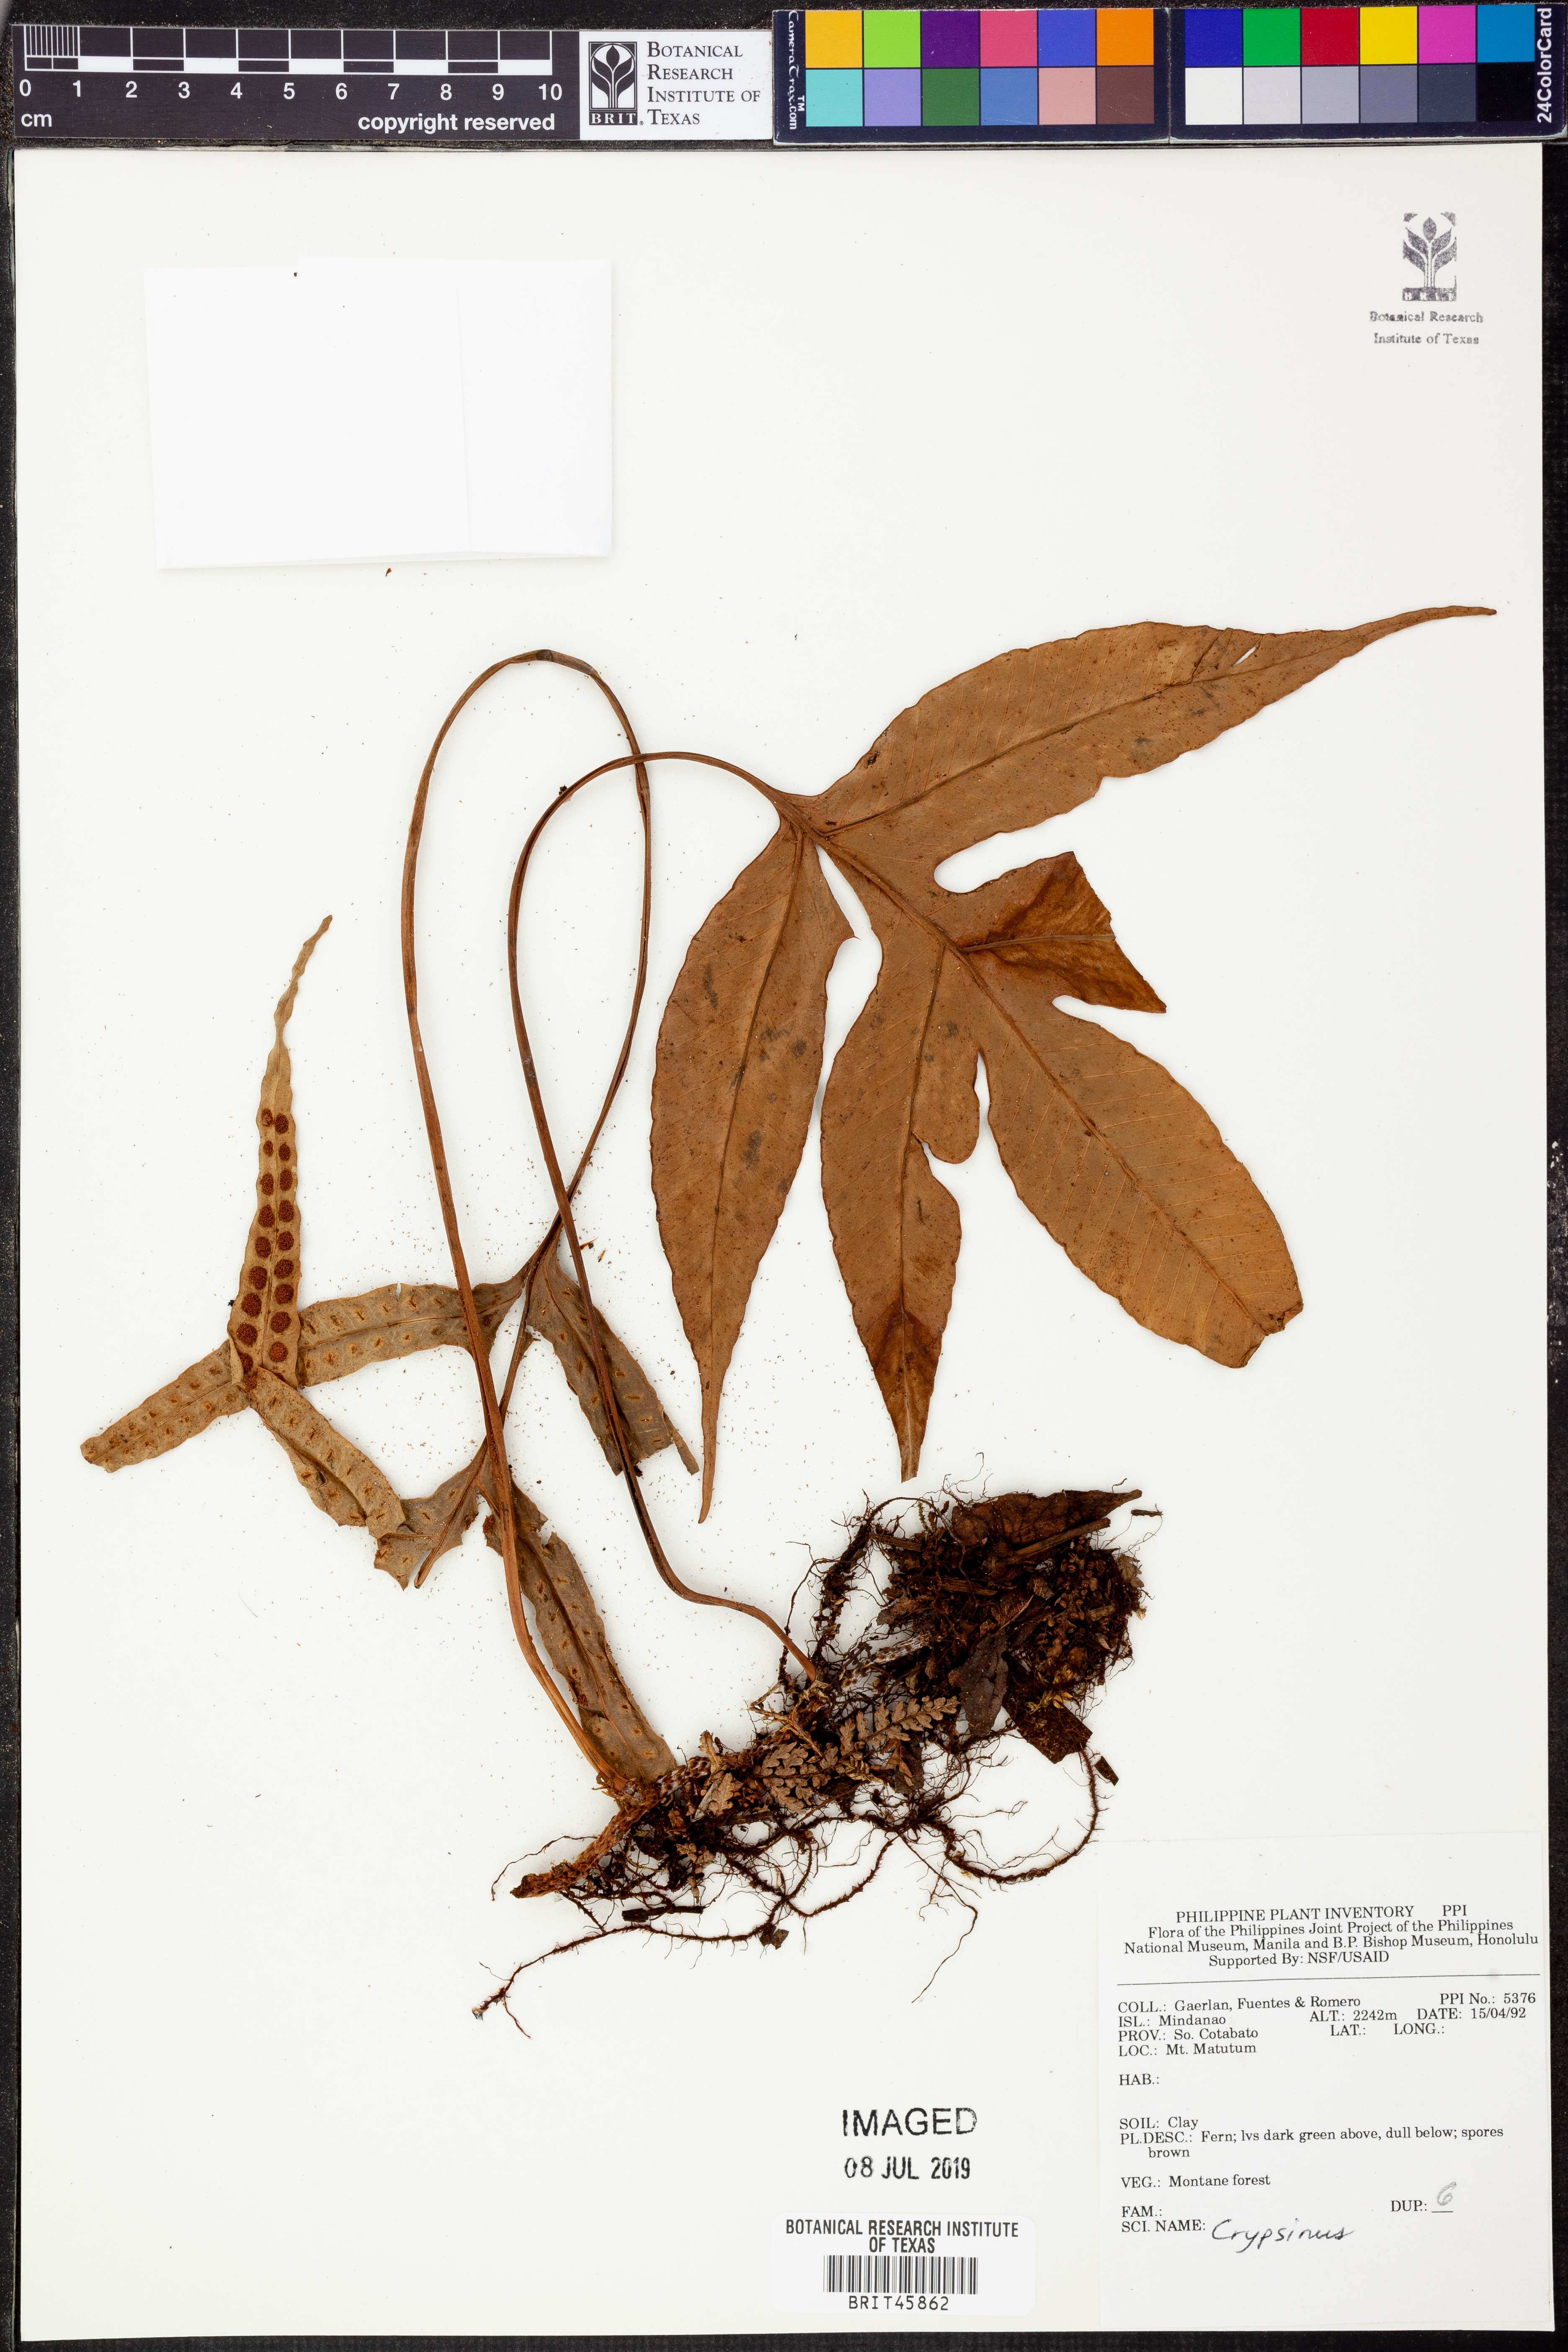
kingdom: Animalia
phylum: Arthropoda
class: Insecta
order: Hemiptera
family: Pentatomidae
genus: Crypsinus
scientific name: Crypsinus
